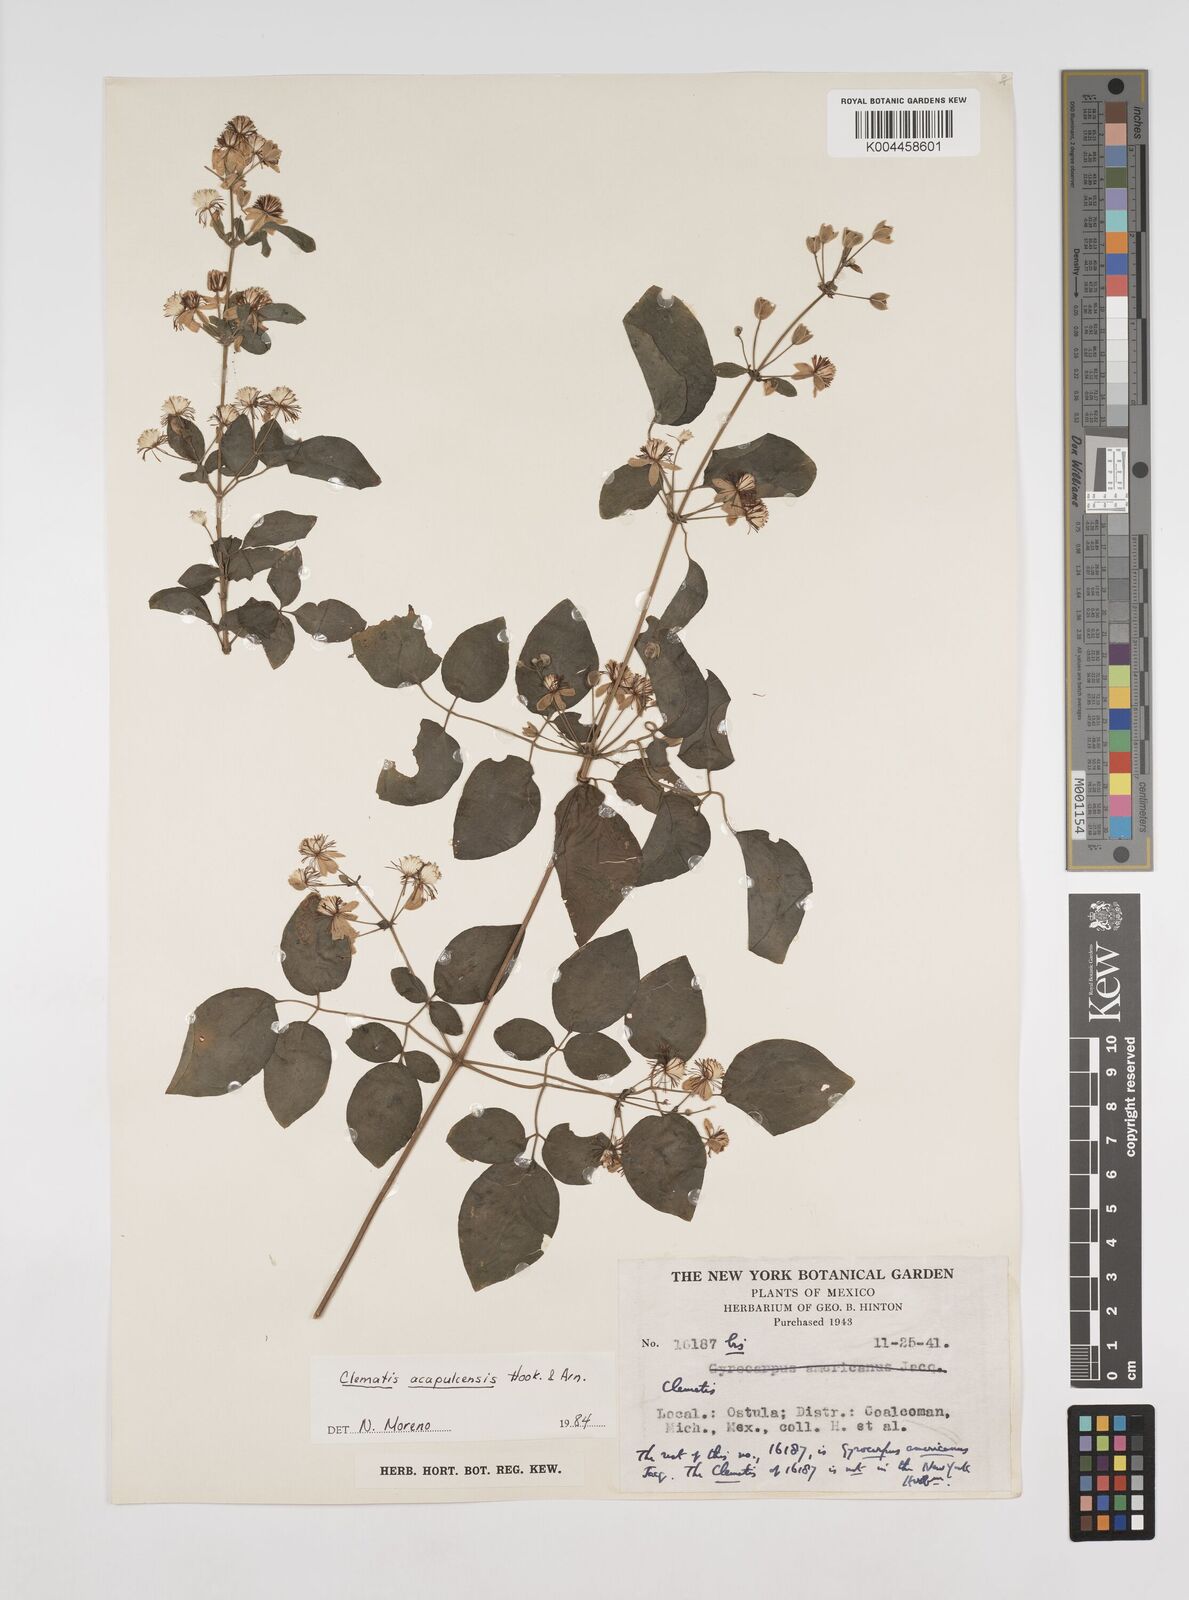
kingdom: Plantae
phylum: Tracheophyta
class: Magnoliopsida
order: Ranunculales
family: Ranunculaceae
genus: Clematis
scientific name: Clematis acapulcensis
